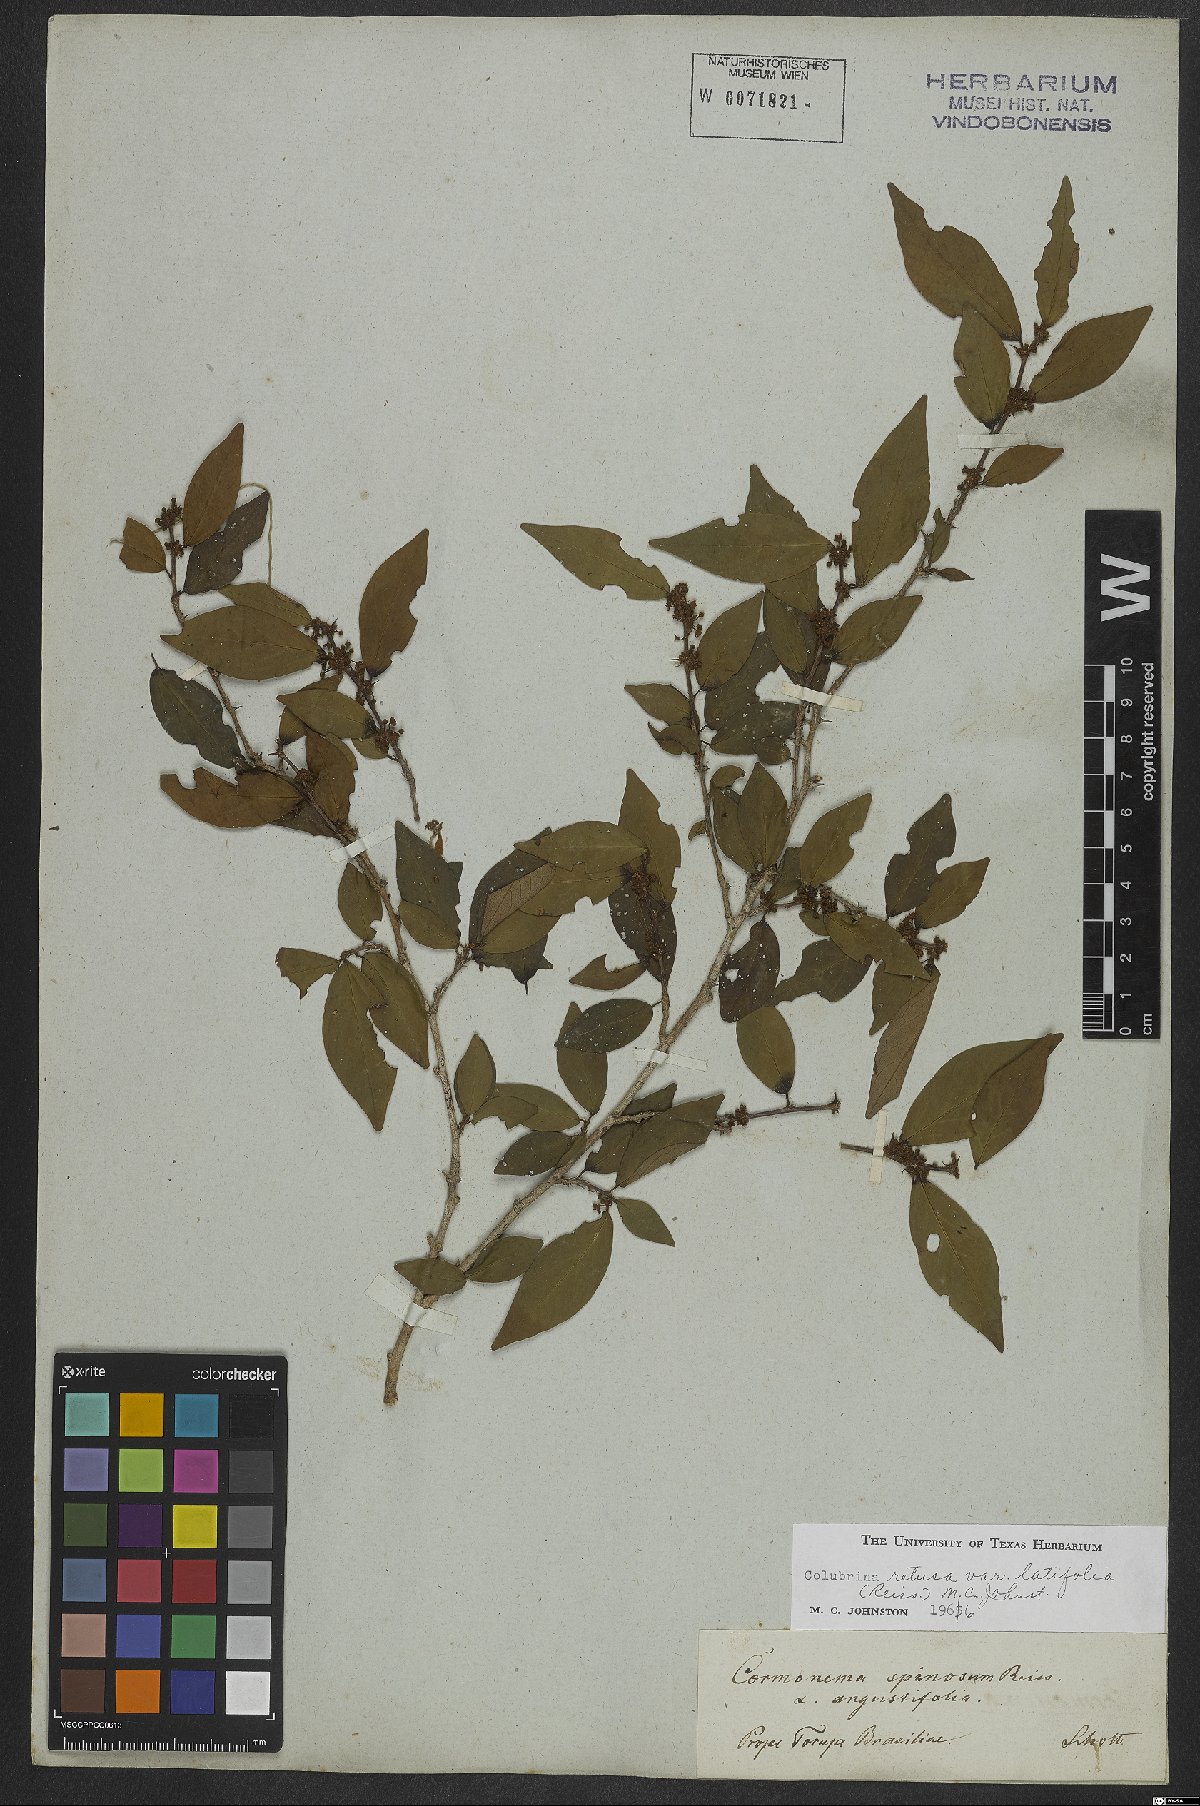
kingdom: Plantae
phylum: Tracheophyta
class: Magnoliopsida
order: Rosales
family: Rhamnaceae
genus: Colubrina
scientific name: Colubrina retusa
